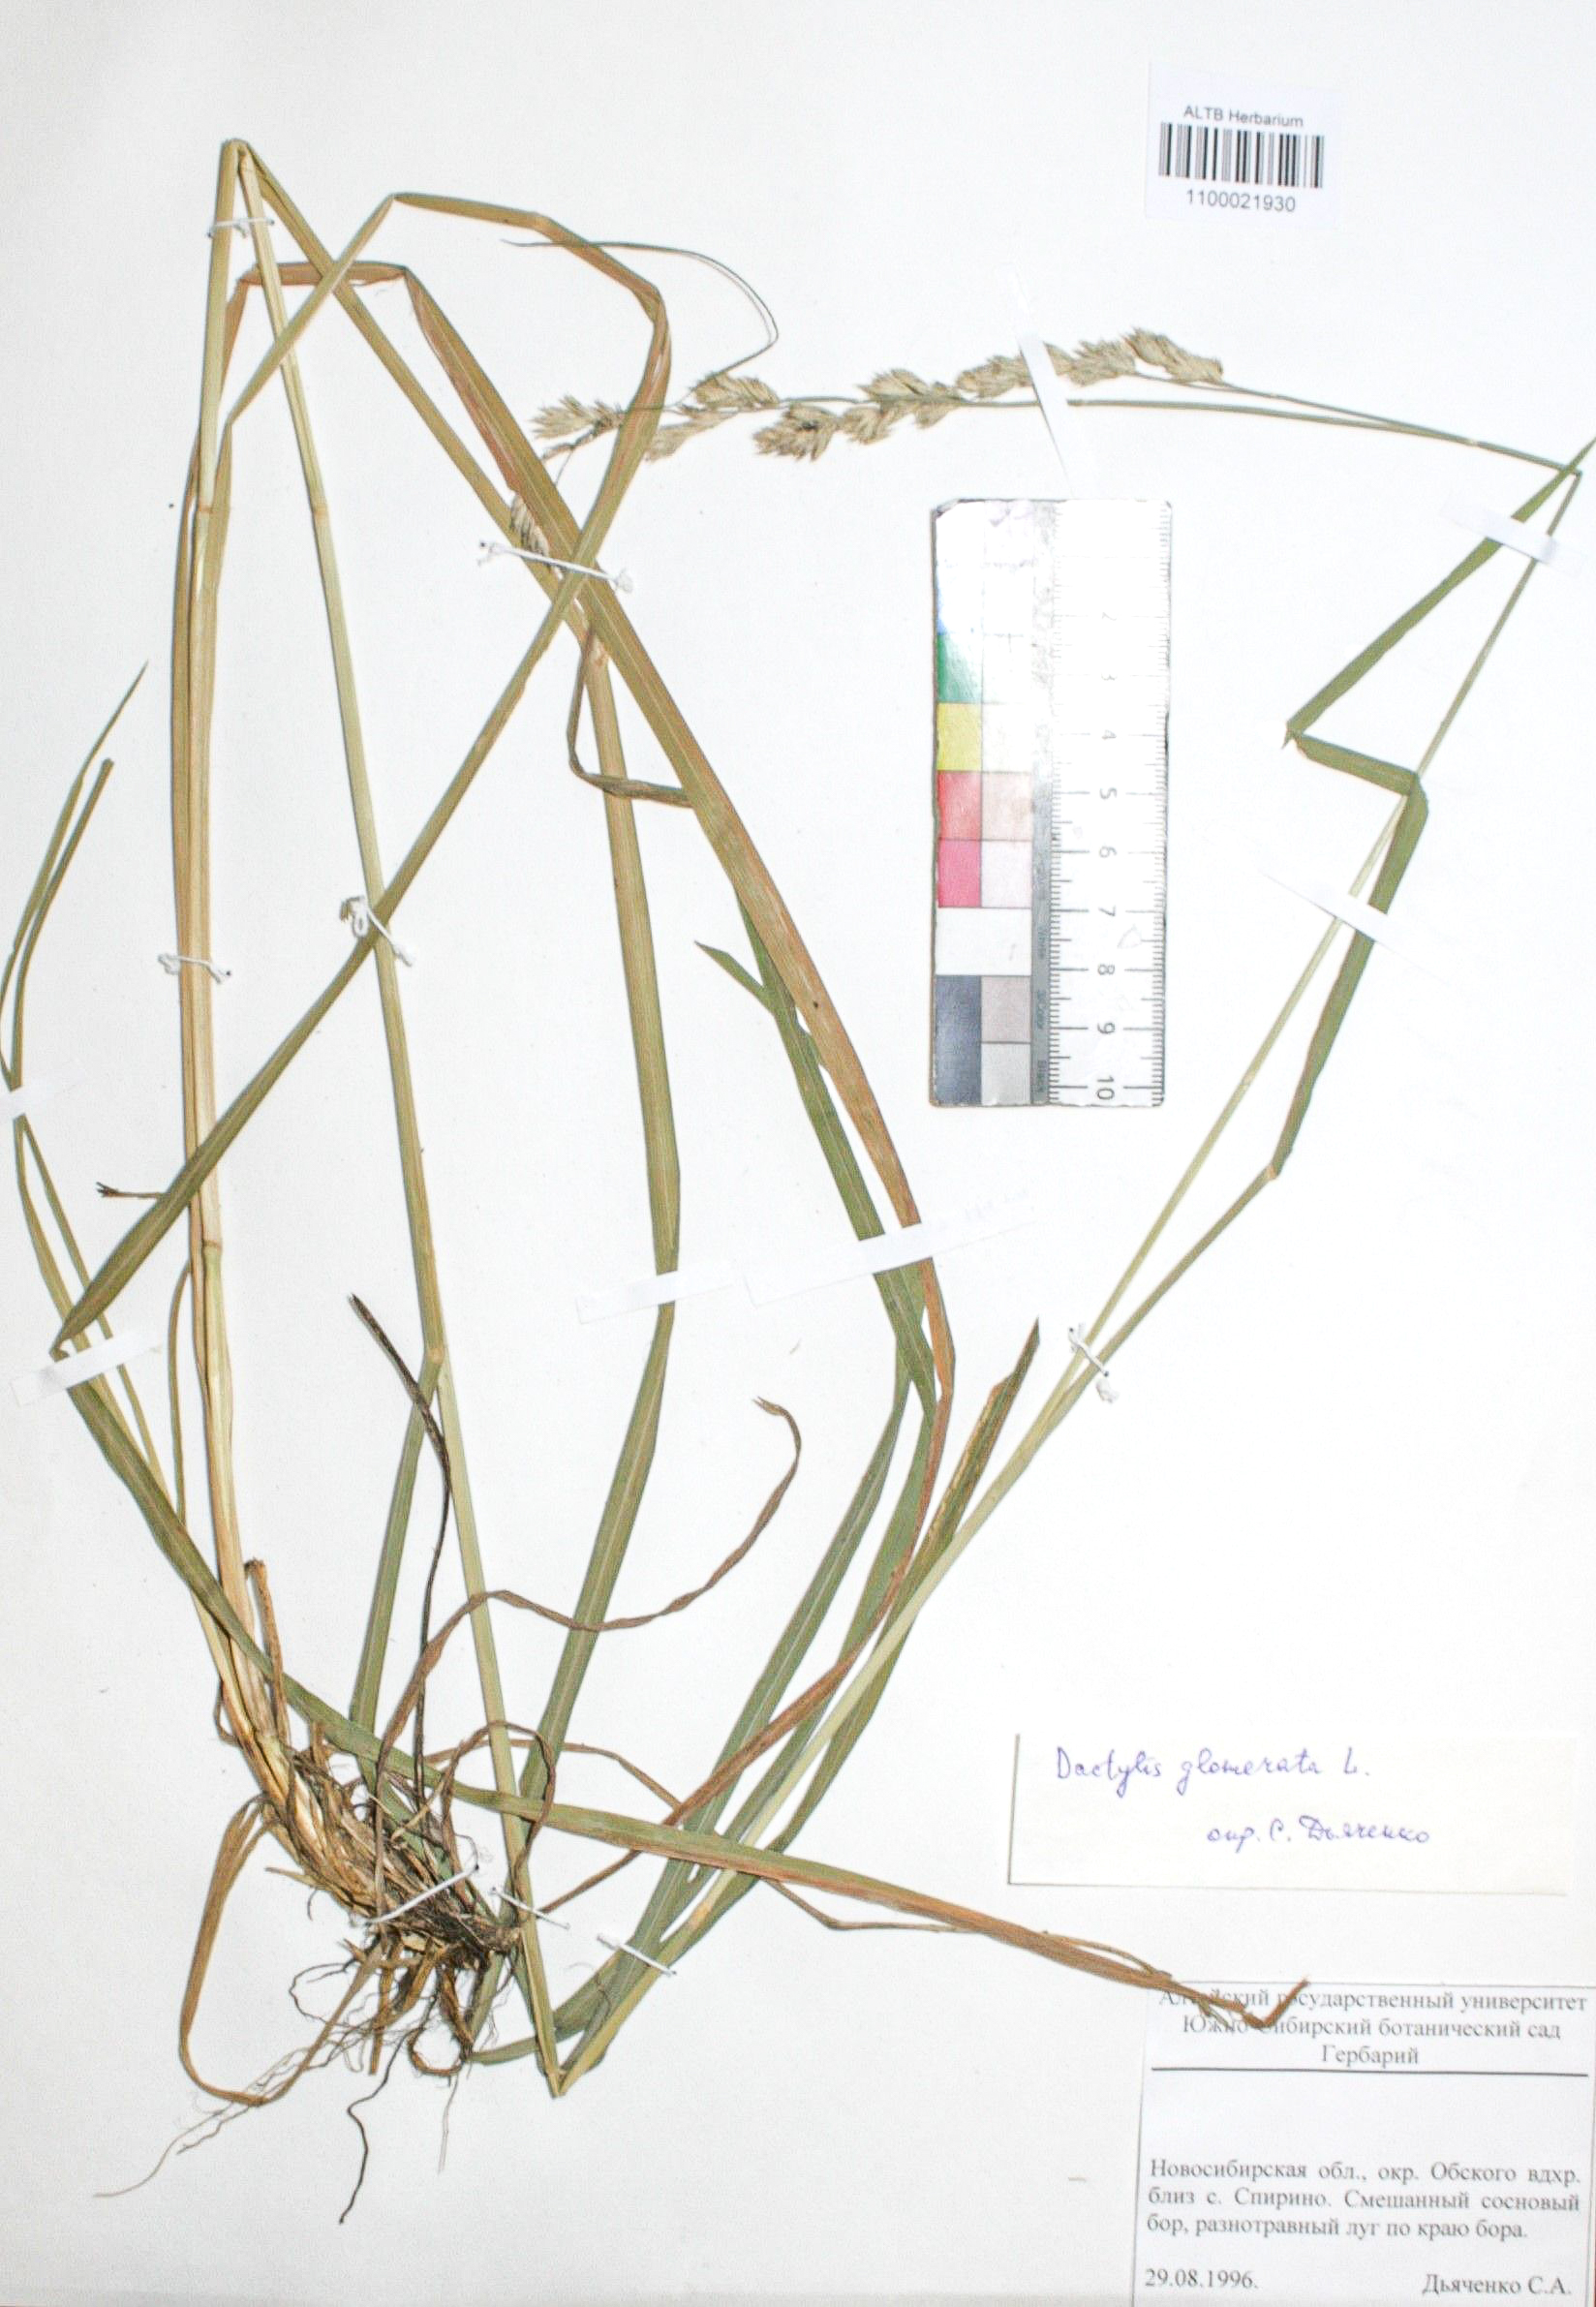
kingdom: Plantae
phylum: Tracheophyta
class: Liliopsida
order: Poales
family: Poaceae
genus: Dactylis
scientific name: Dactylis glomerata
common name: Orchardgrass
